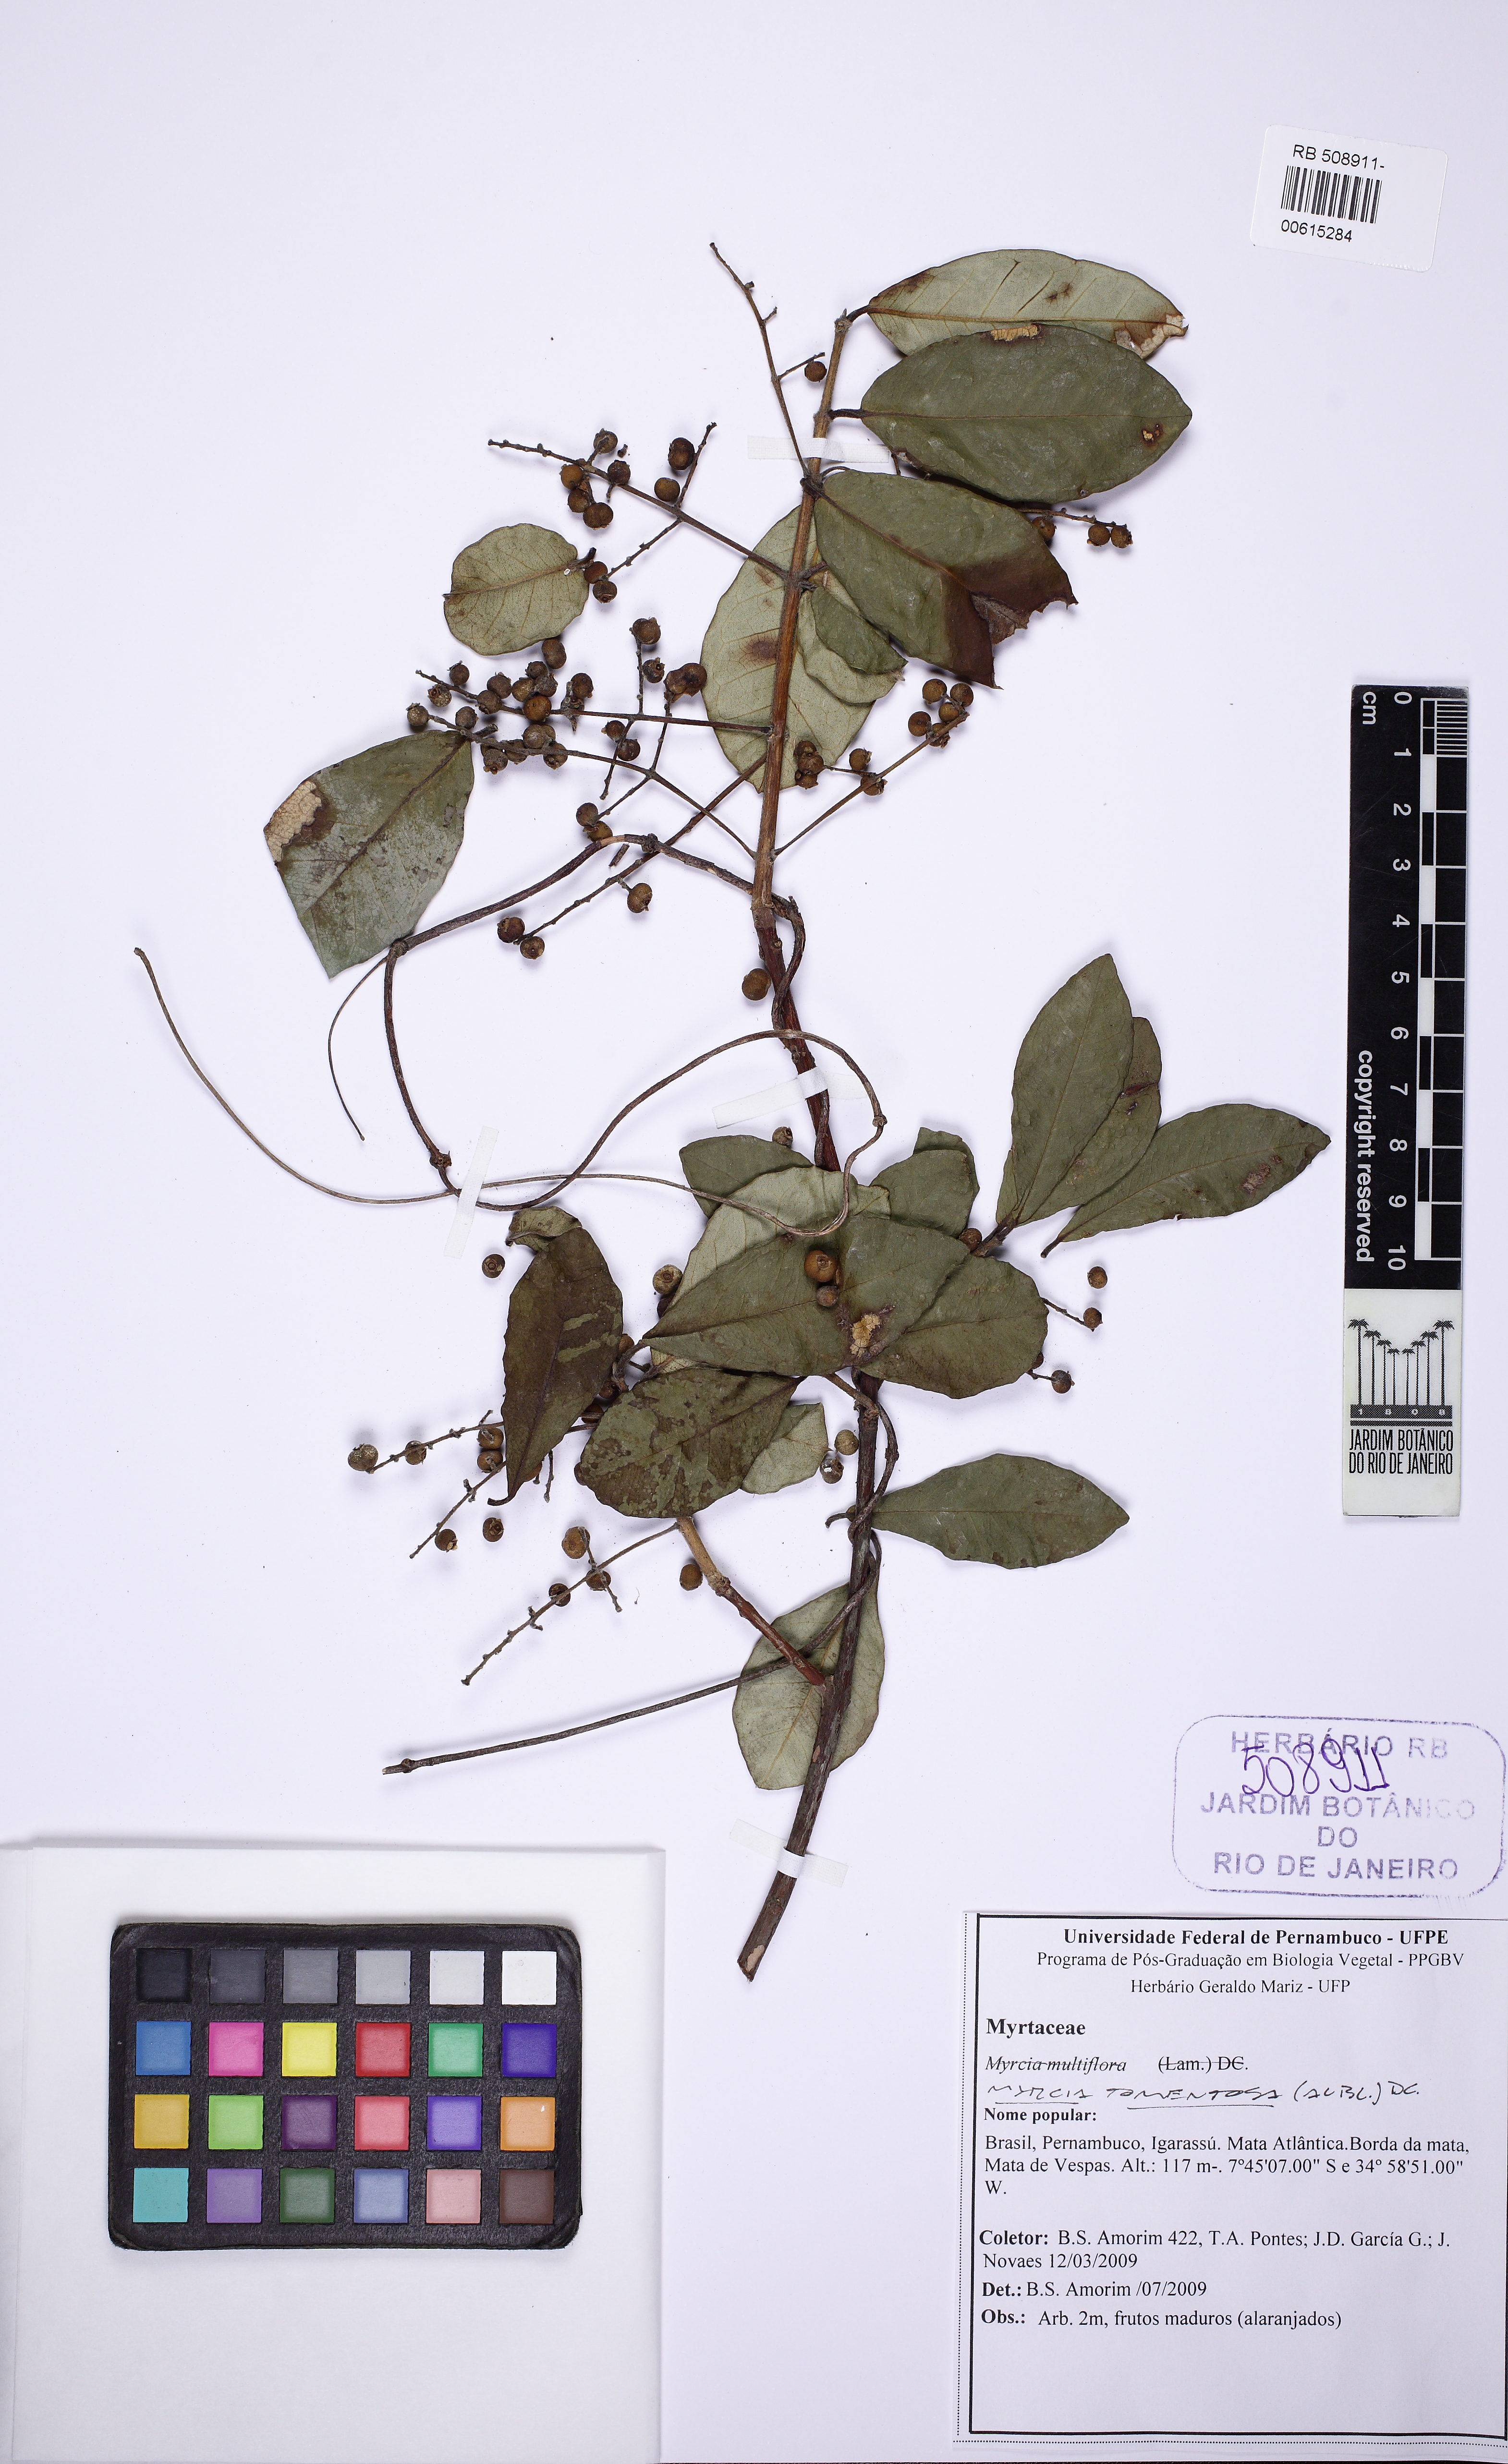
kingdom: Plantae
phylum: Tracheophyta
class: Magnoliopsida
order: Myrtales
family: Myrtaceae
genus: Myrcia
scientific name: Myrcia tomentosa
